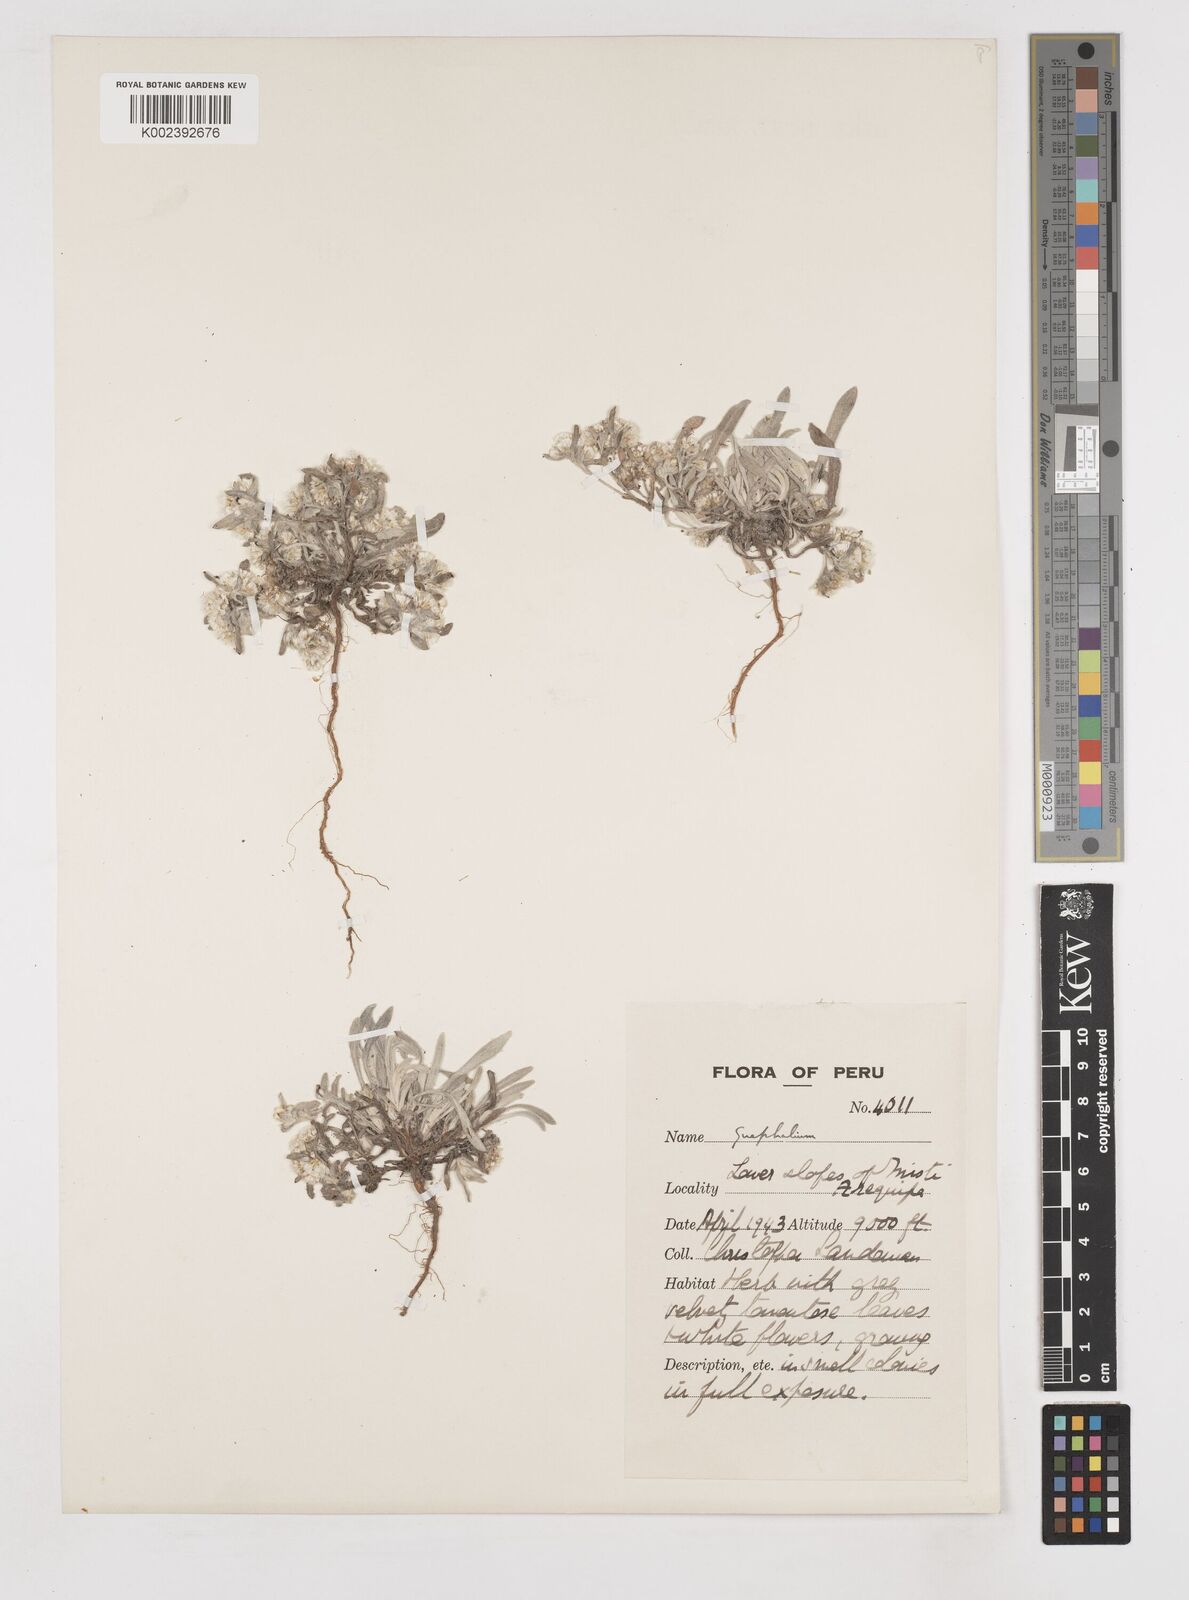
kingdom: Plantae
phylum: Tracheophyta
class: Magnoliopsida
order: Asterales
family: Asteraceae
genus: Gnaphalium
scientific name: Gnaphalium
